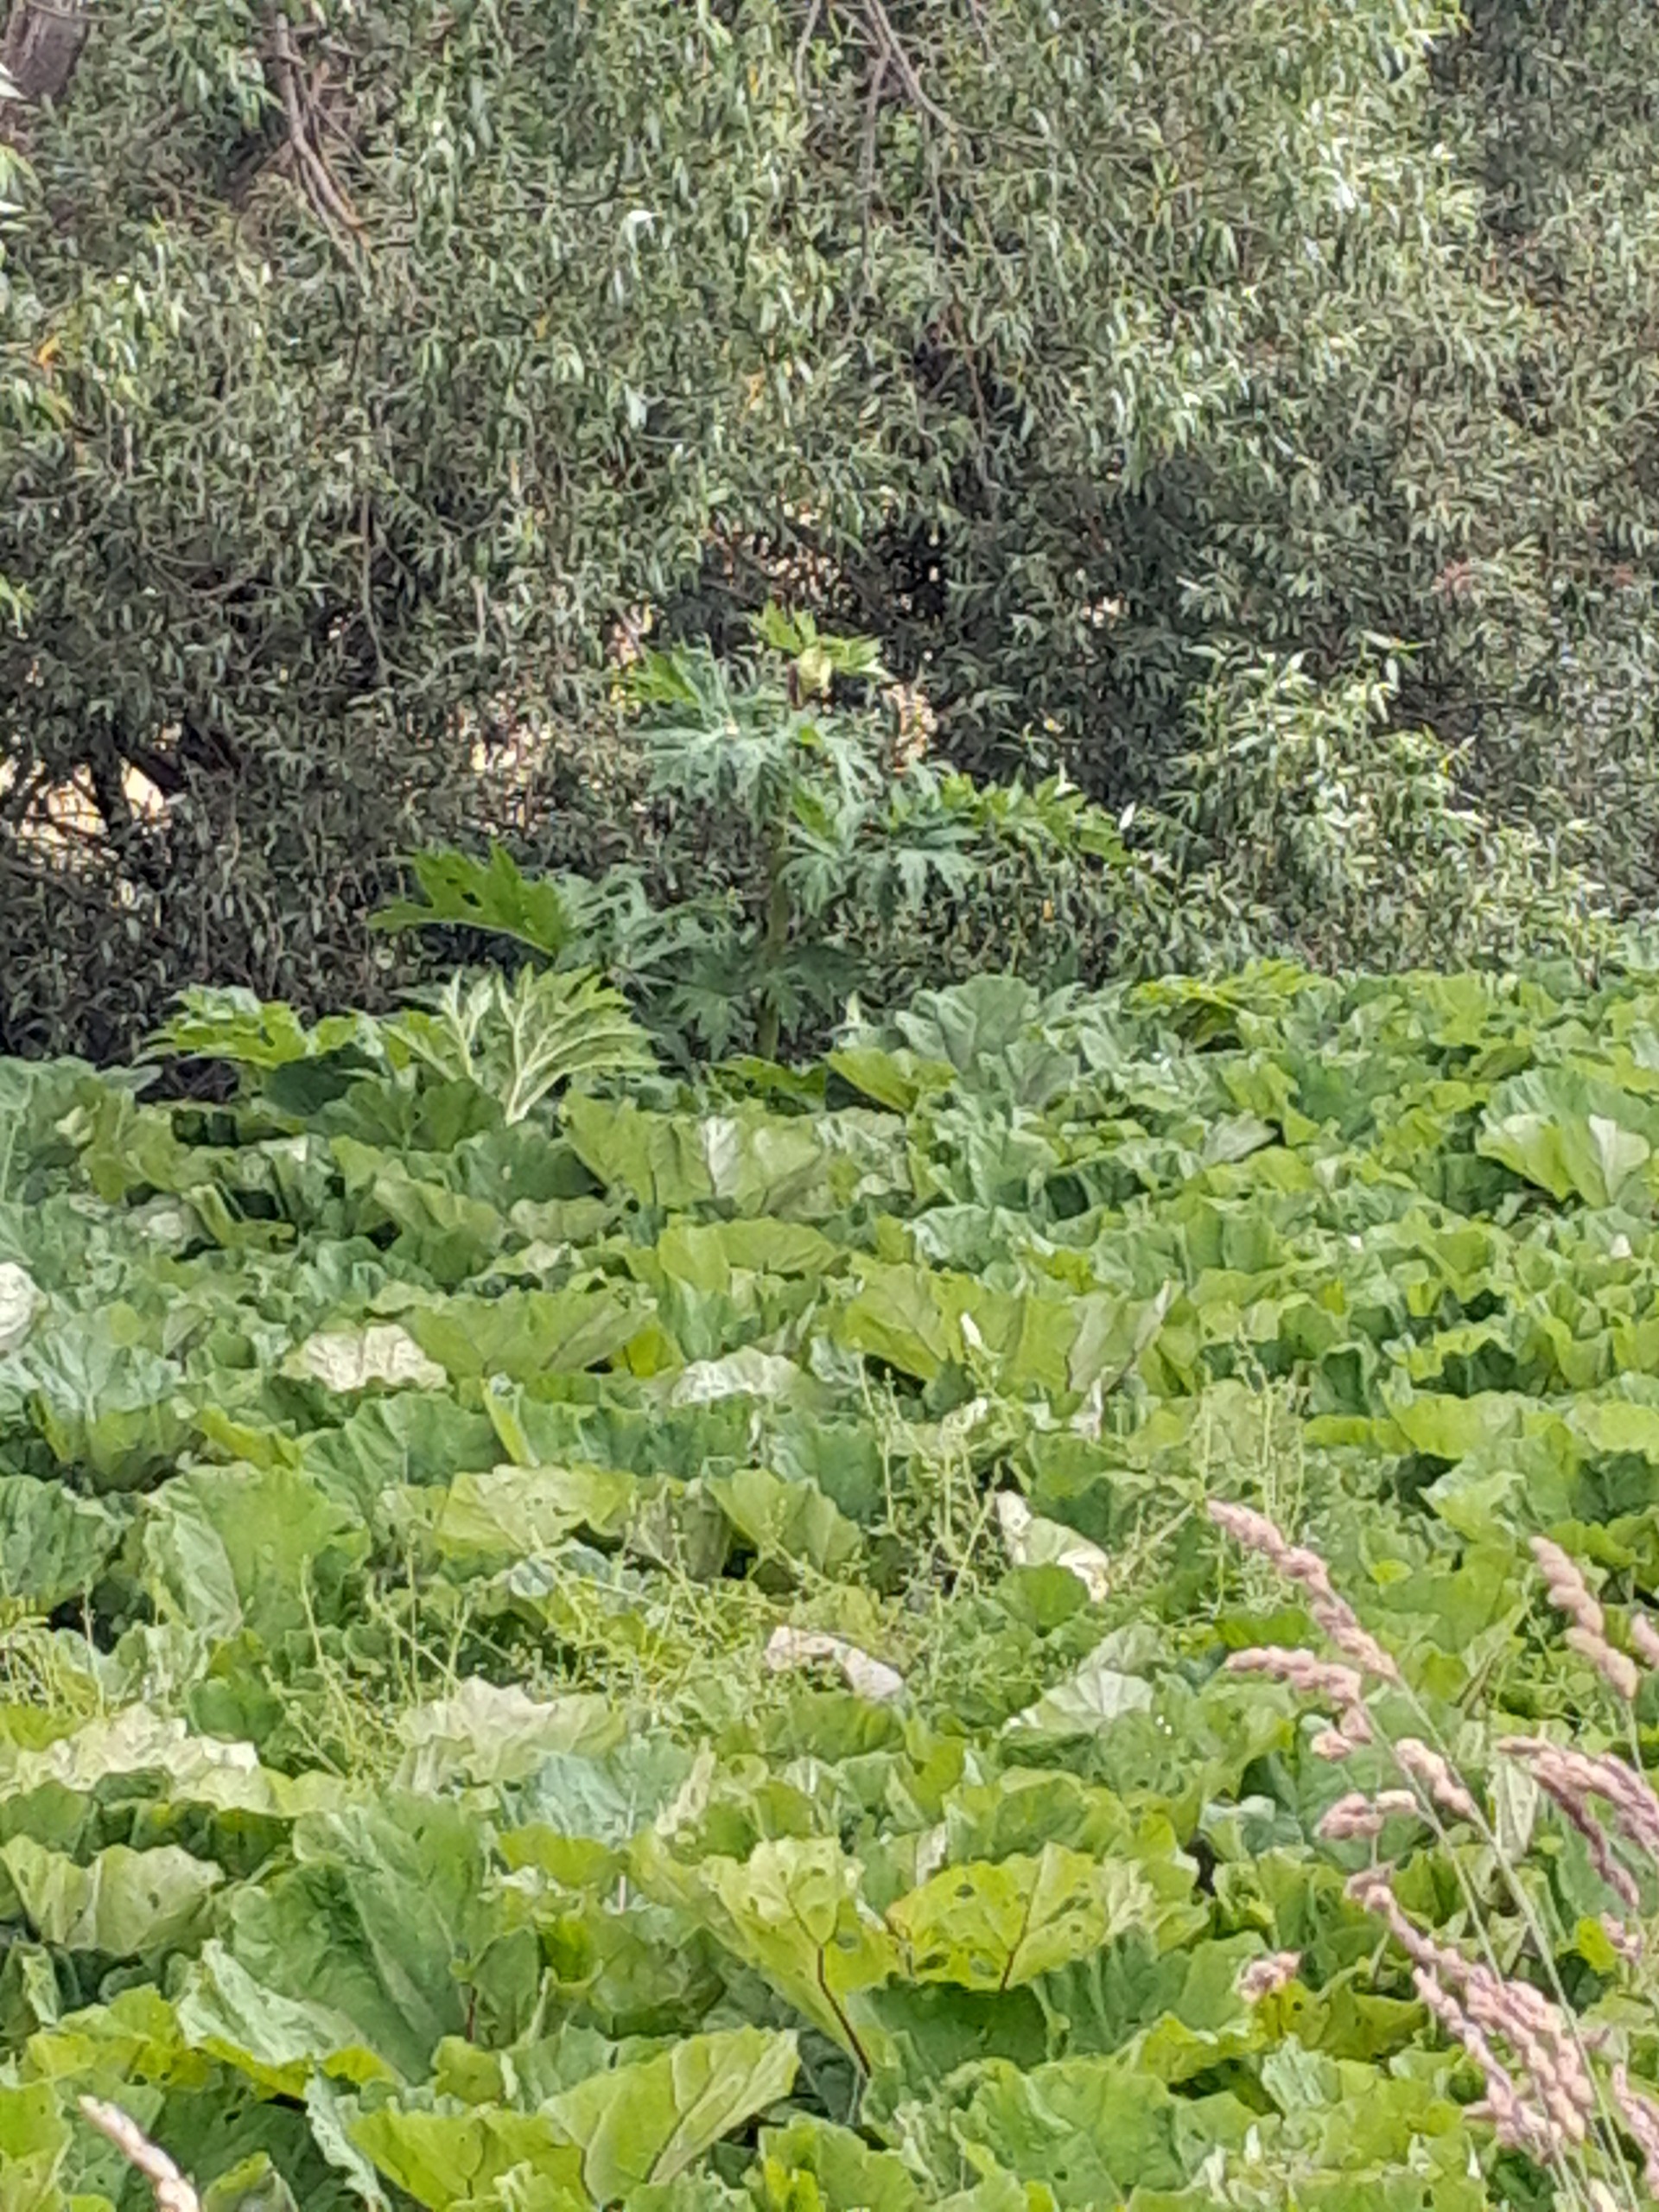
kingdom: Plantae
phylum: Tracheophyta
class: Magnoliopsida
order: Apiales
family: Apiaceae
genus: Heracleum
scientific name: Heracleum mantegazzianum
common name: Kæmpe-bjørneklo
